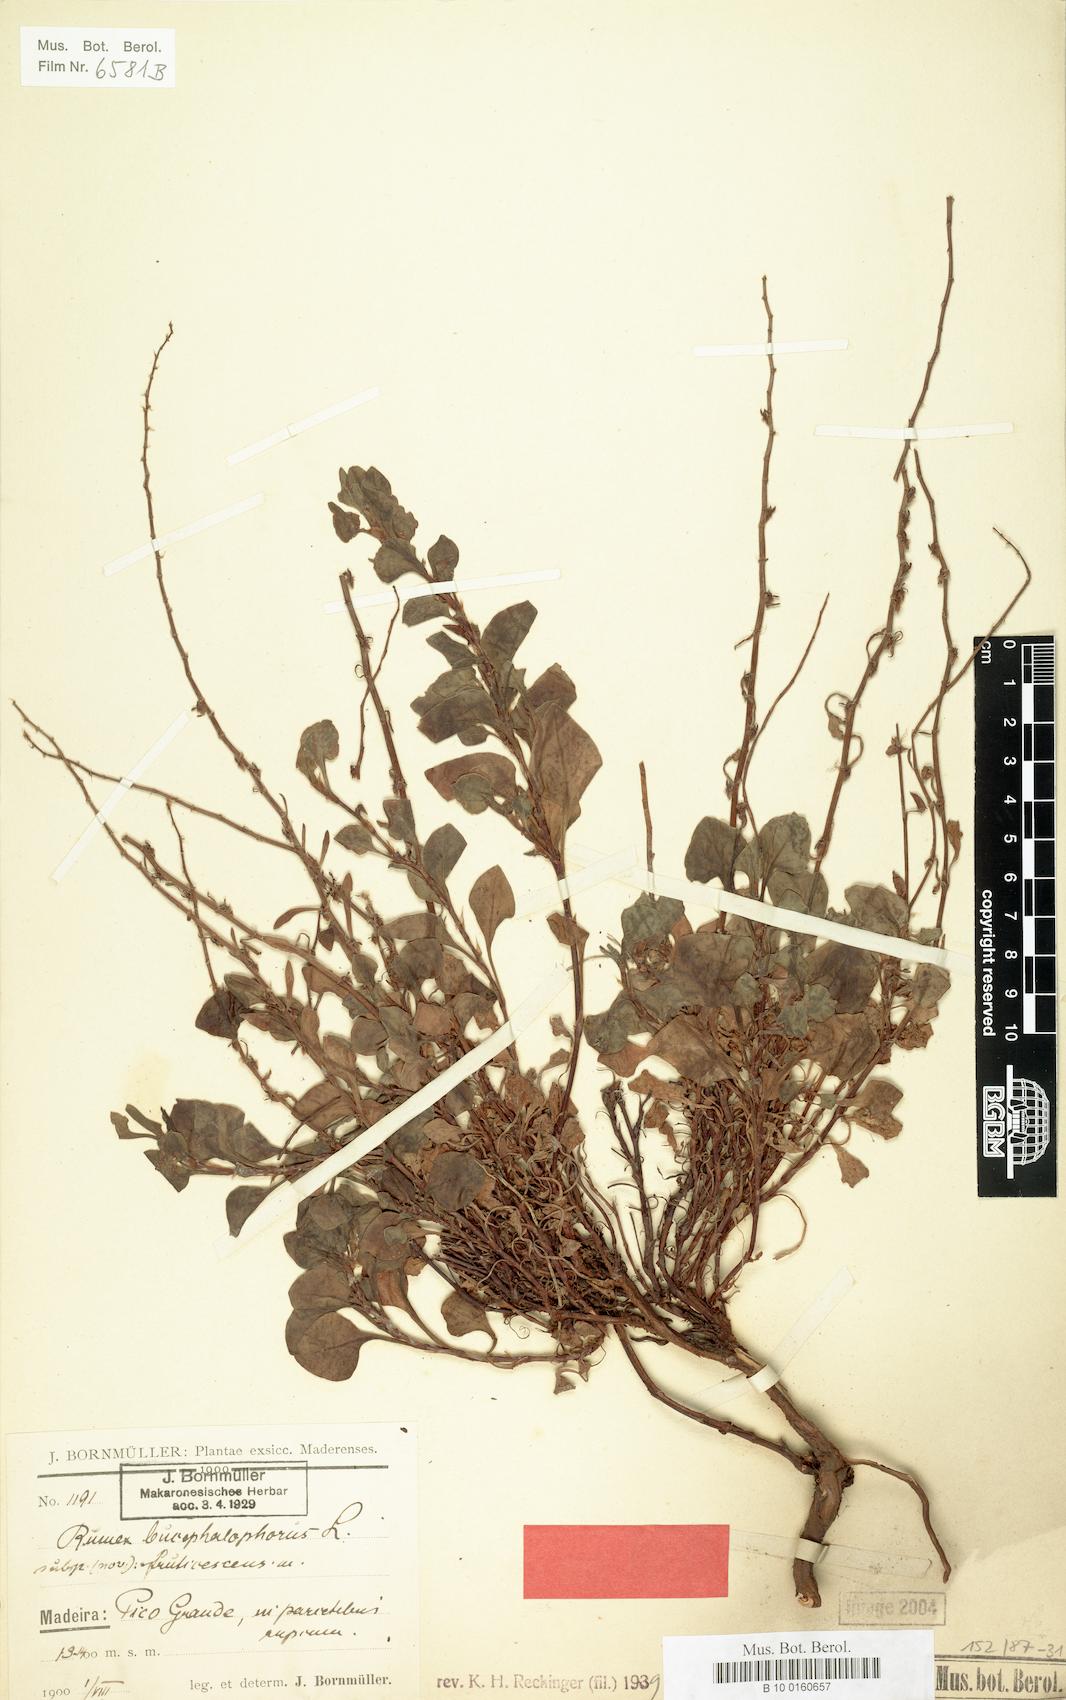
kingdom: Plantae
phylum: Tracheophyta
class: Magnoliopsida
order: Caryophyllales
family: Polygonaceae
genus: Rumex
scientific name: Rumex bucephalophorus
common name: Red dock
